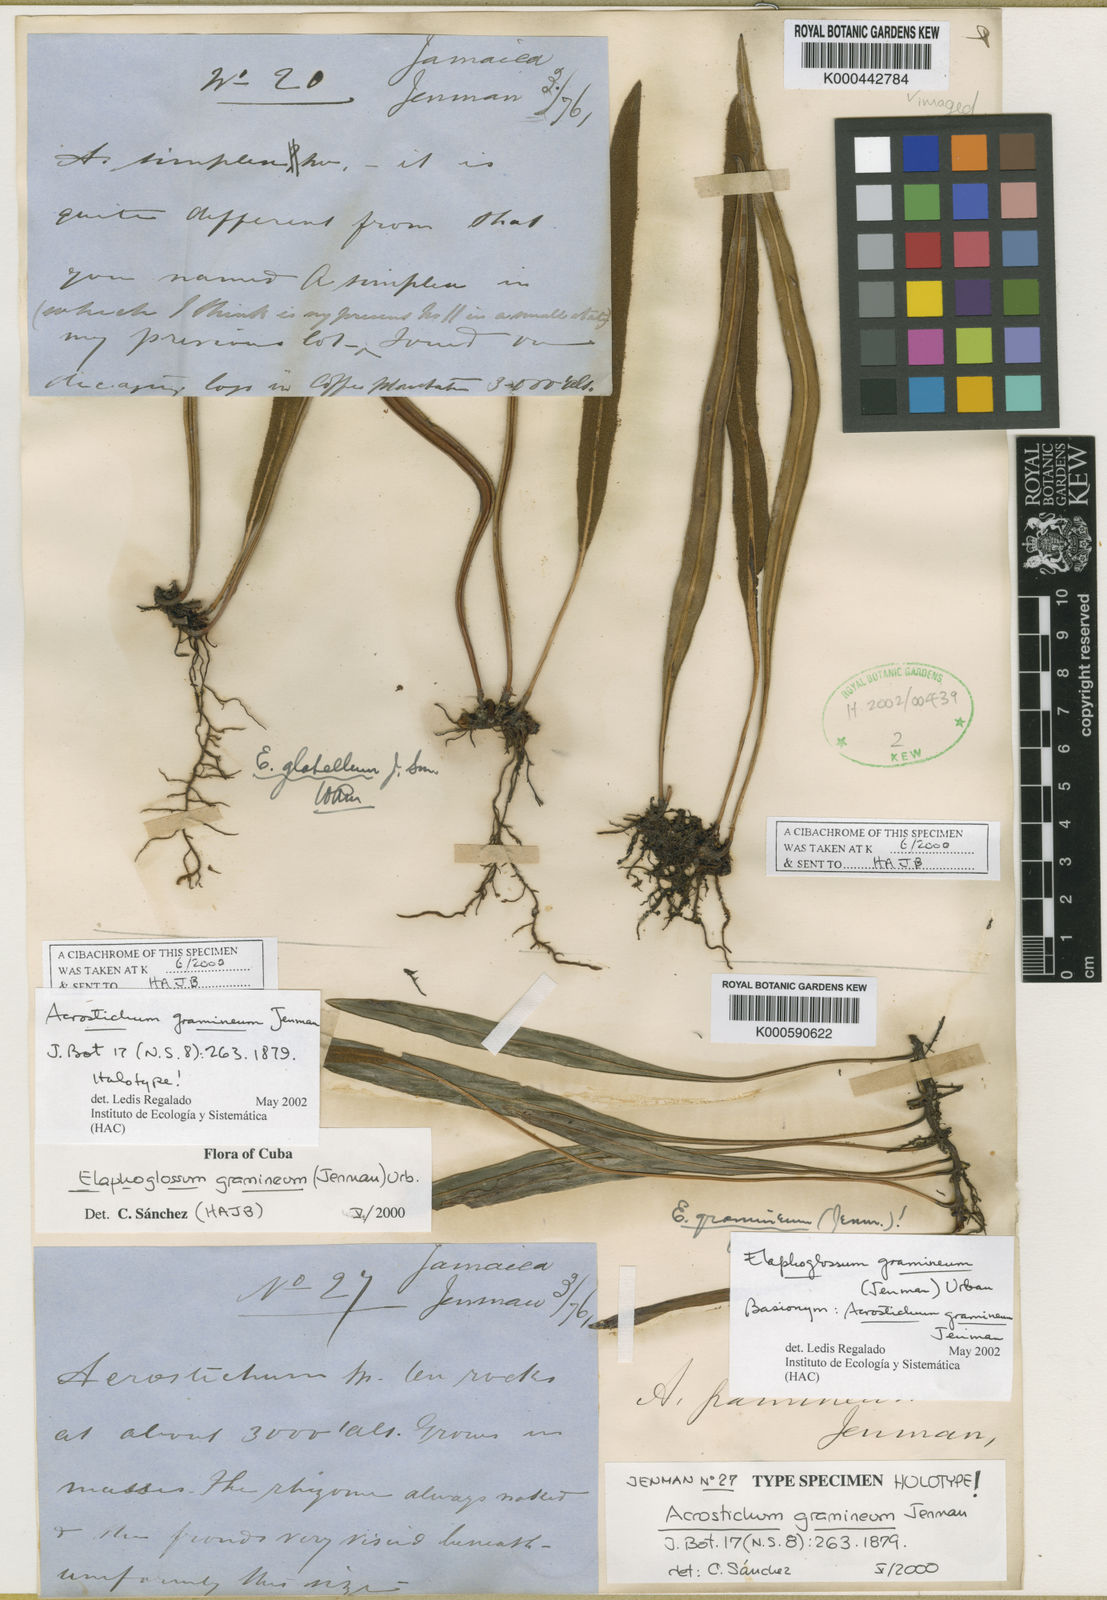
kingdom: Plantae
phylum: Tracheophyta
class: Polypodiopsida
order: Polypodiales
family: Dryopteridaceae
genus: Elaphoglossum
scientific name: Elaphoglossum gramineum
